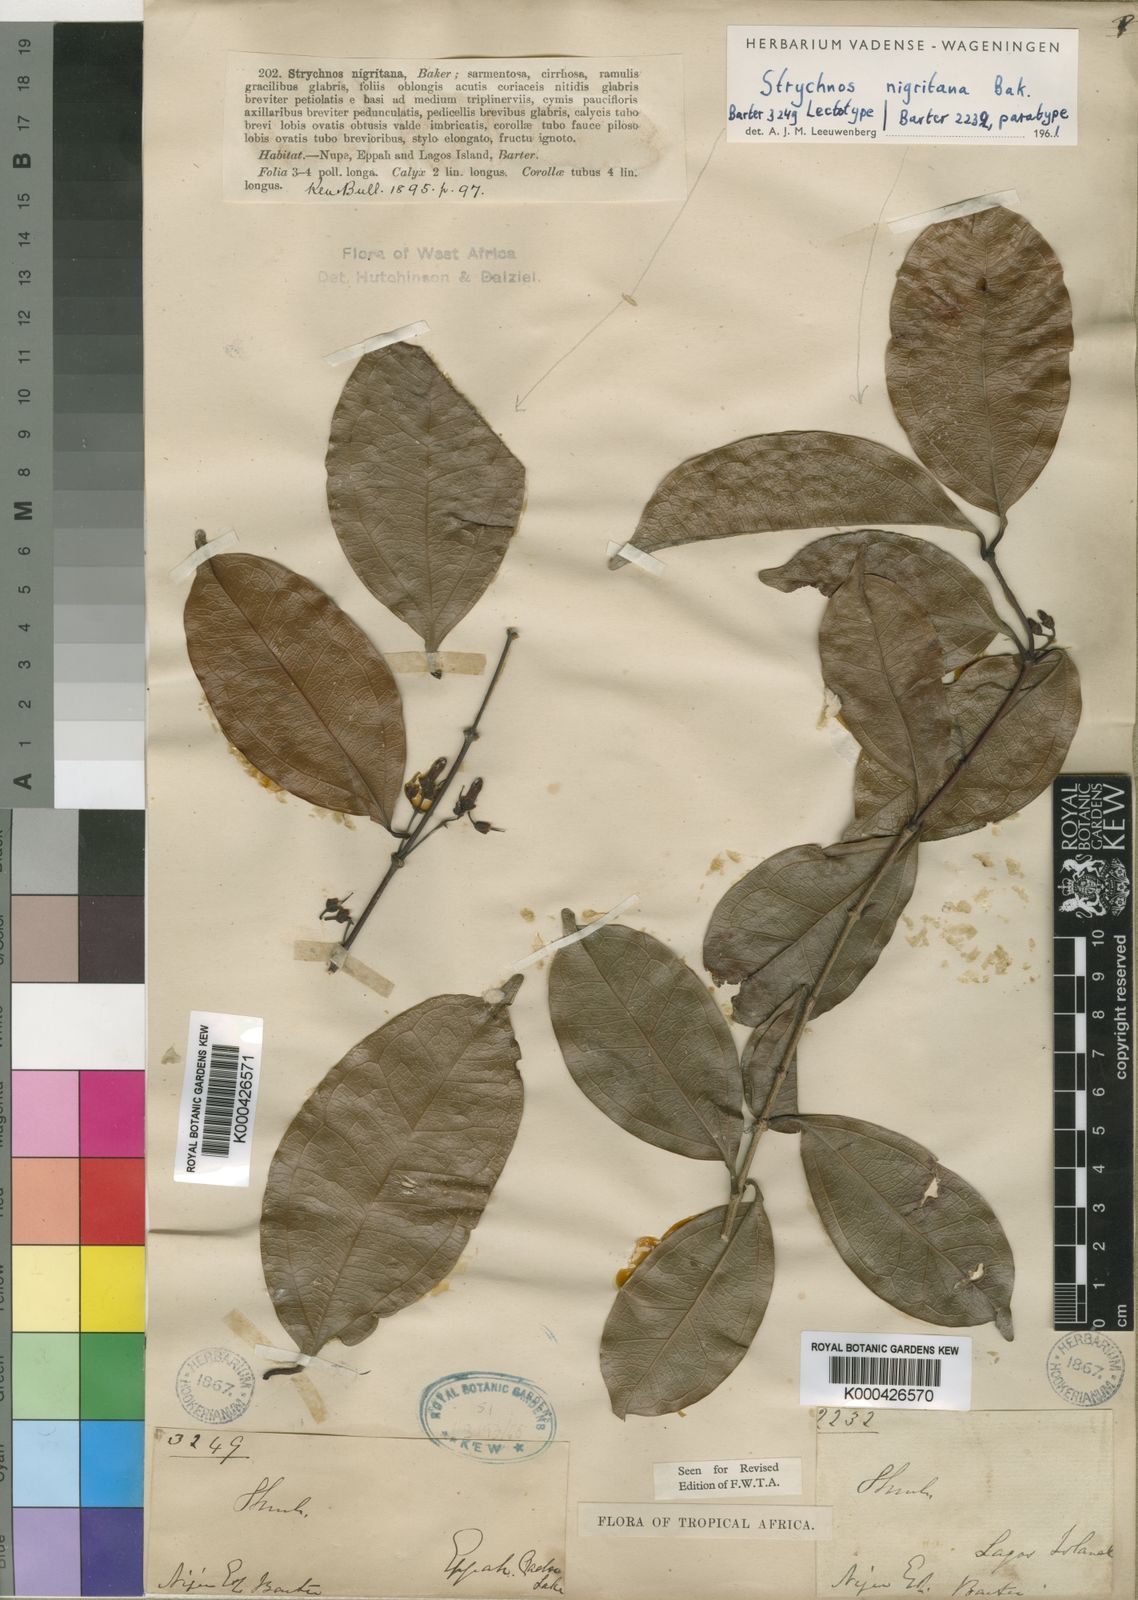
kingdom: Plantae
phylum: Tracheophyta
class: Magnoliopsida
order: Gentianales
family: Loganiaceae
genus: Strychnos
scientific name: Strychnos nigritana
